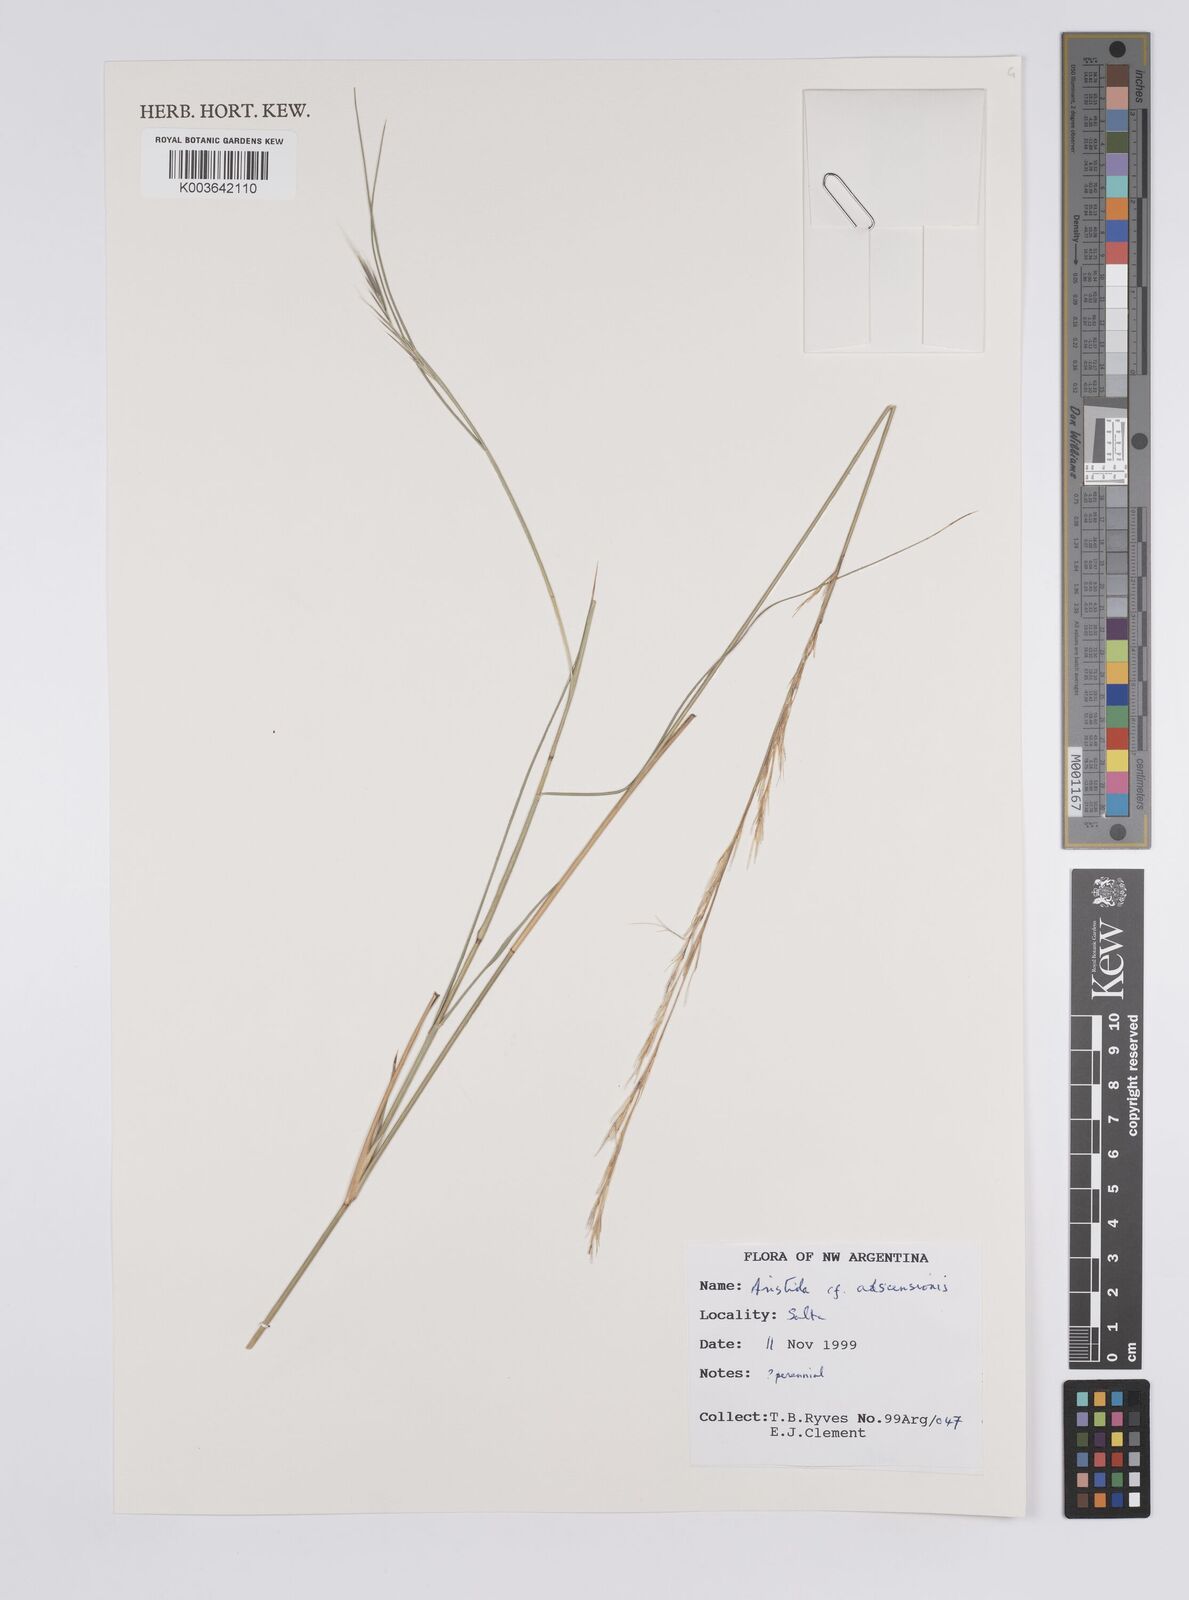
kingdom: Plantae
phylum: Tracheophyta
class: Liliopsida
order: Poales
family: Poaceae
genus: Aristida
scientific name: Aristida adscensionis
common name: Sixweeks threeawn
